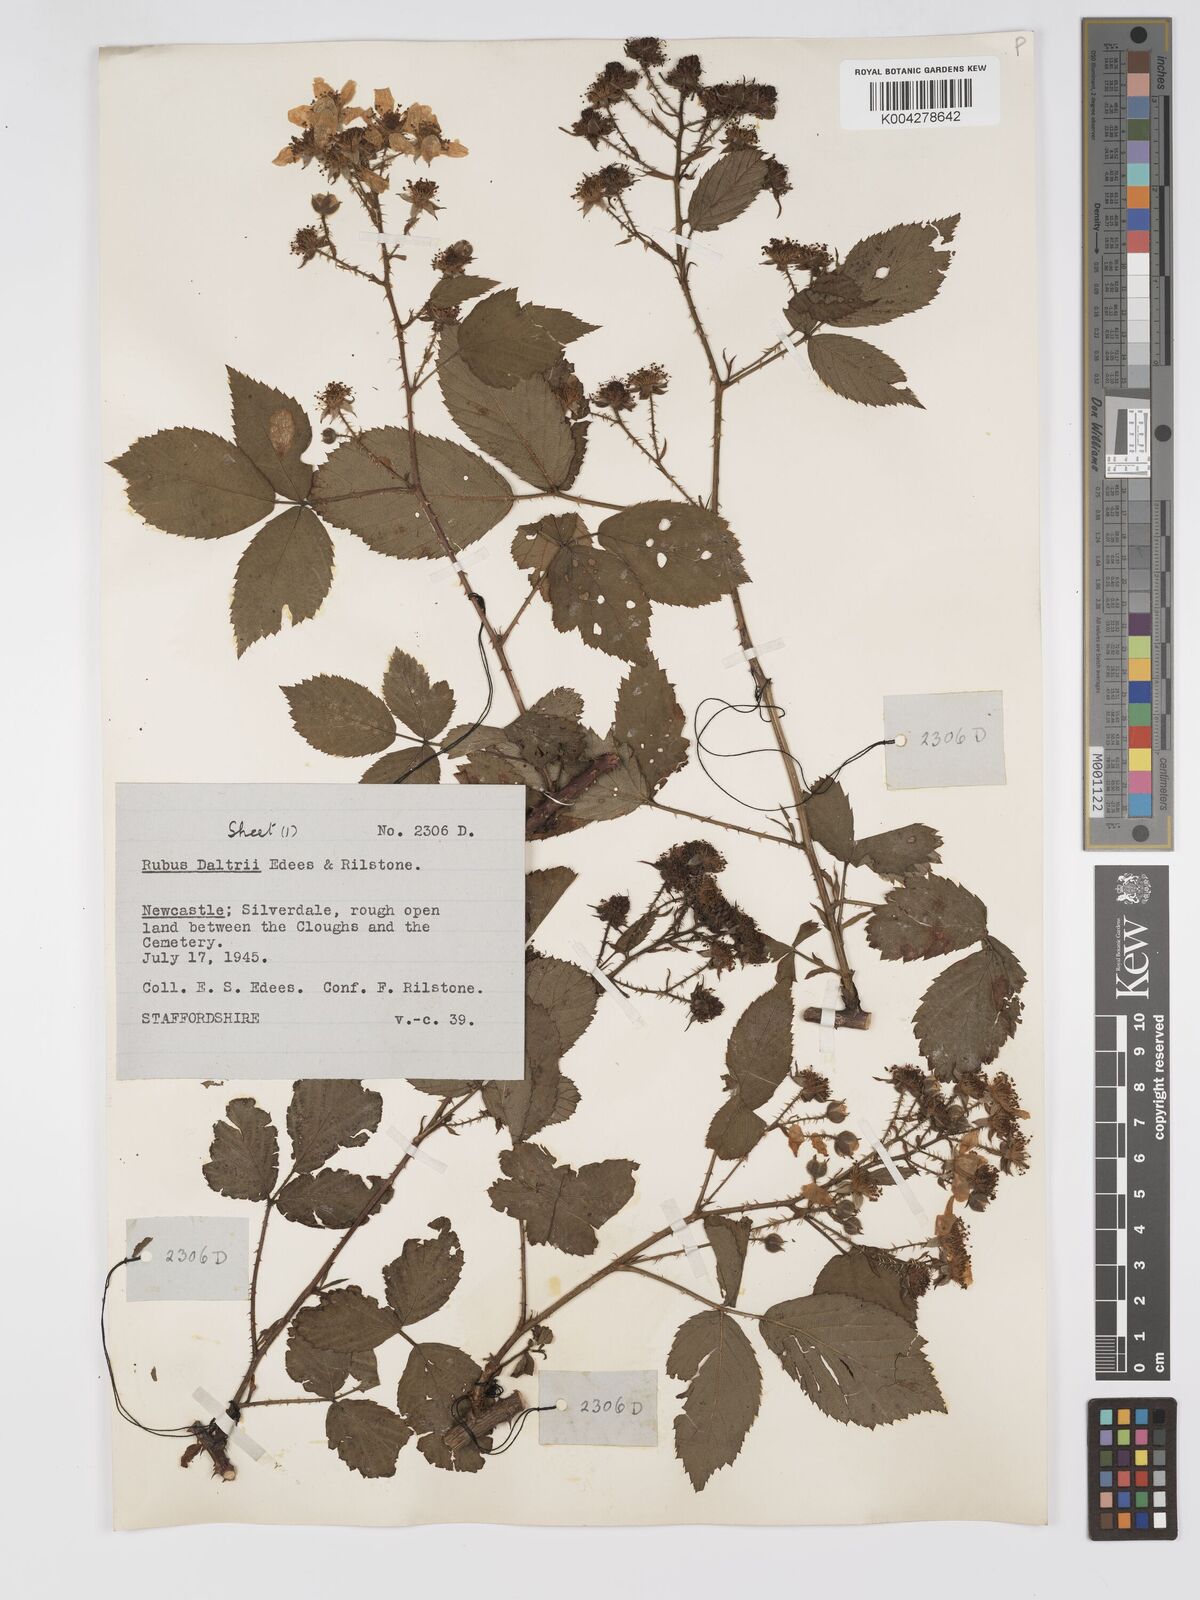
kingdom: Plantae
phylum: Tracheophyta
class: Magnoliopsida
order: Rosales
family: Rosaceae
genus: Rubus
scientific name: Rubus daltrii
